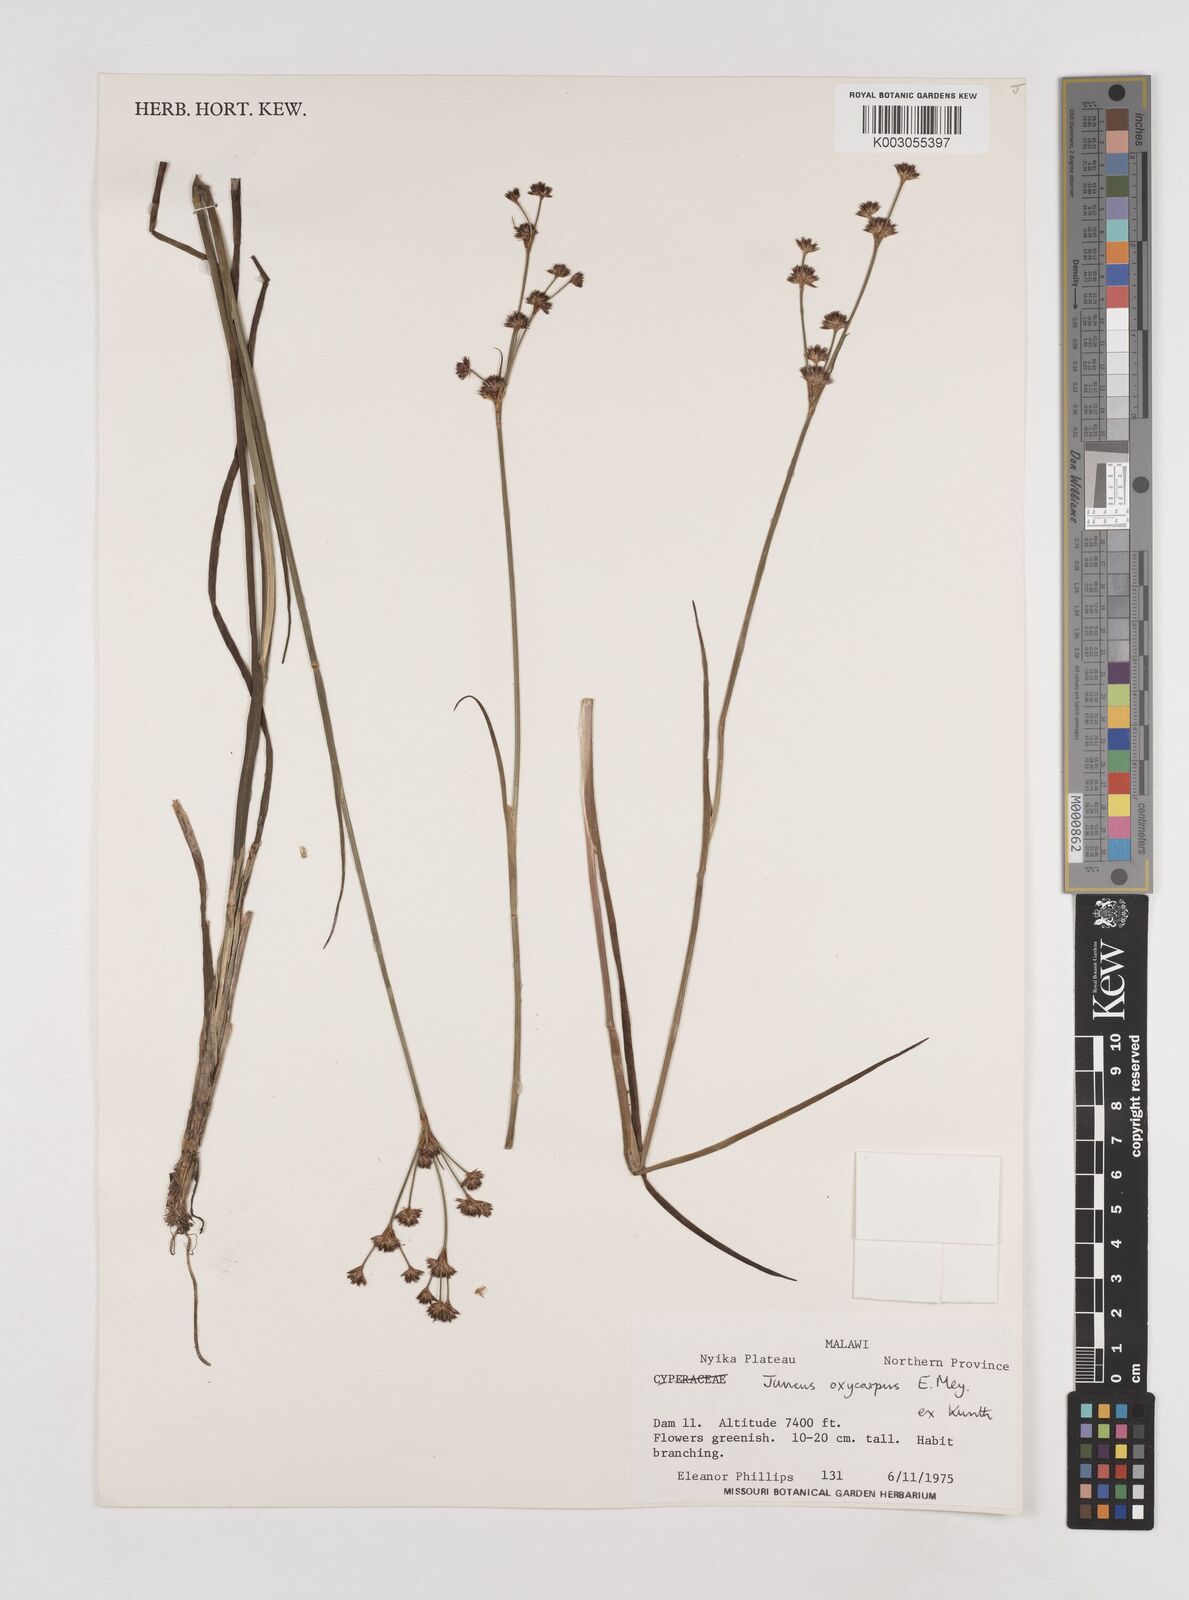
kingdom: Plantae
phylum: Tracheophyta
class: Liliopsida
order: Poales
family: Juncaceae
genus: Juncus
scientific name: Juncus oxycarpus
